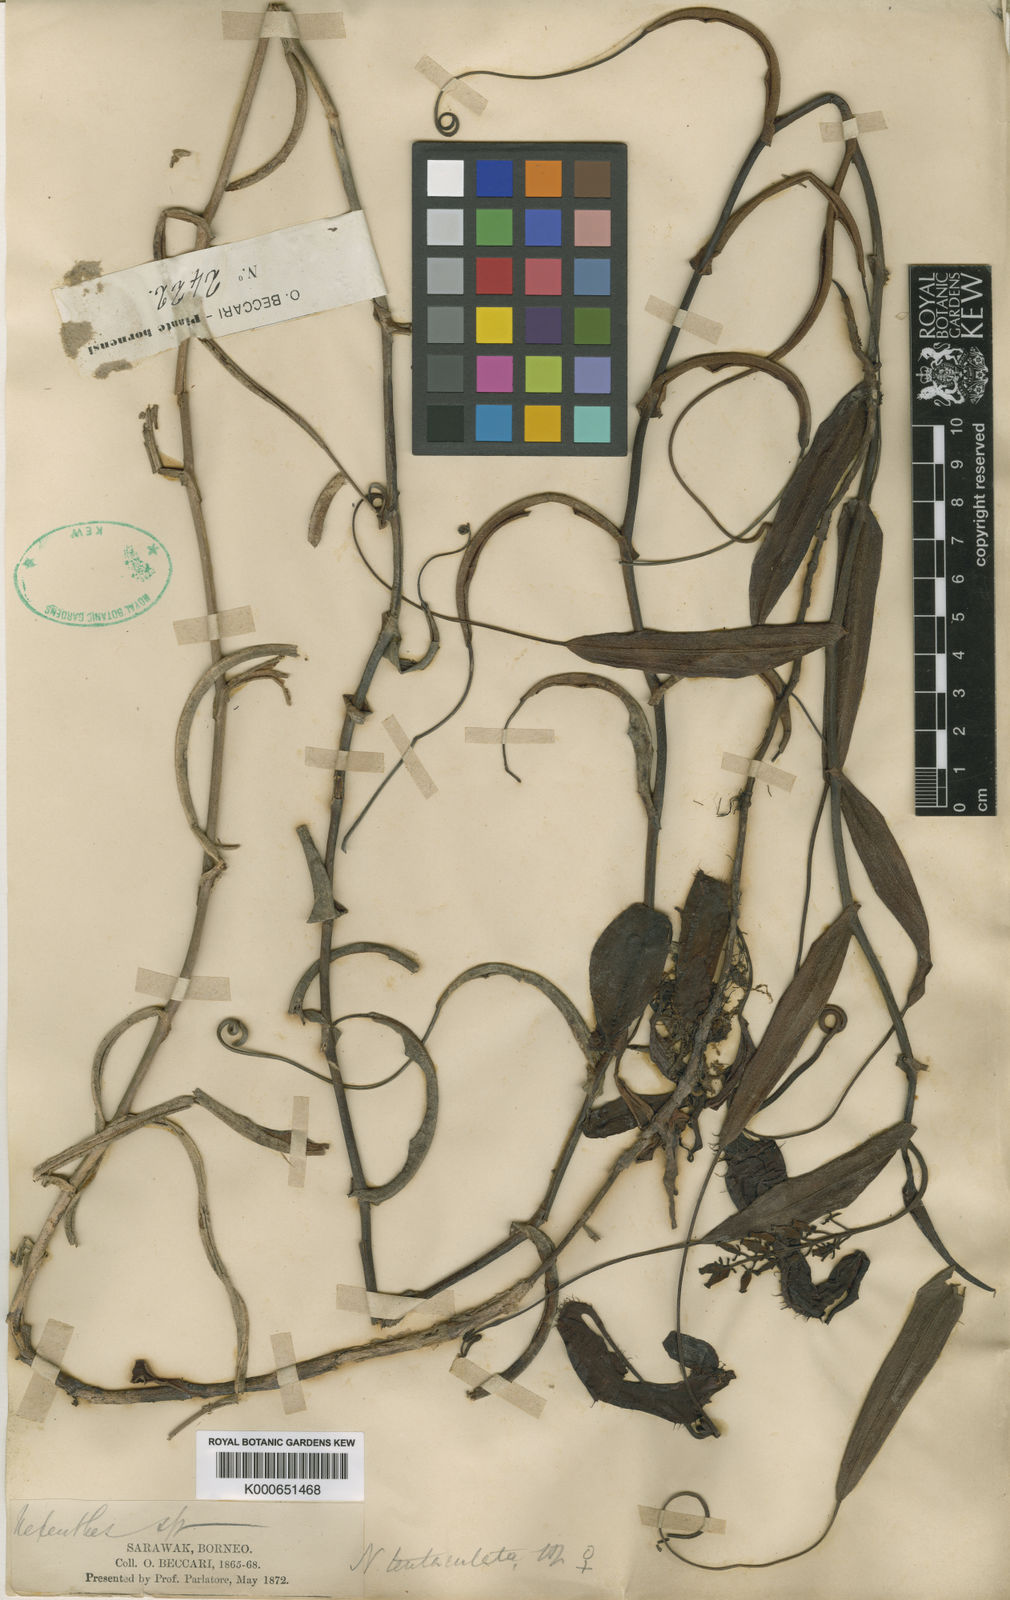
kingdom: Plantae
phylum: Tracheophyta
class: Magnoliopsida
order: Caryophyllales
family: Nepenthaceae
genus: Nepenthes
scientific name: Nepenthes tentaculata
